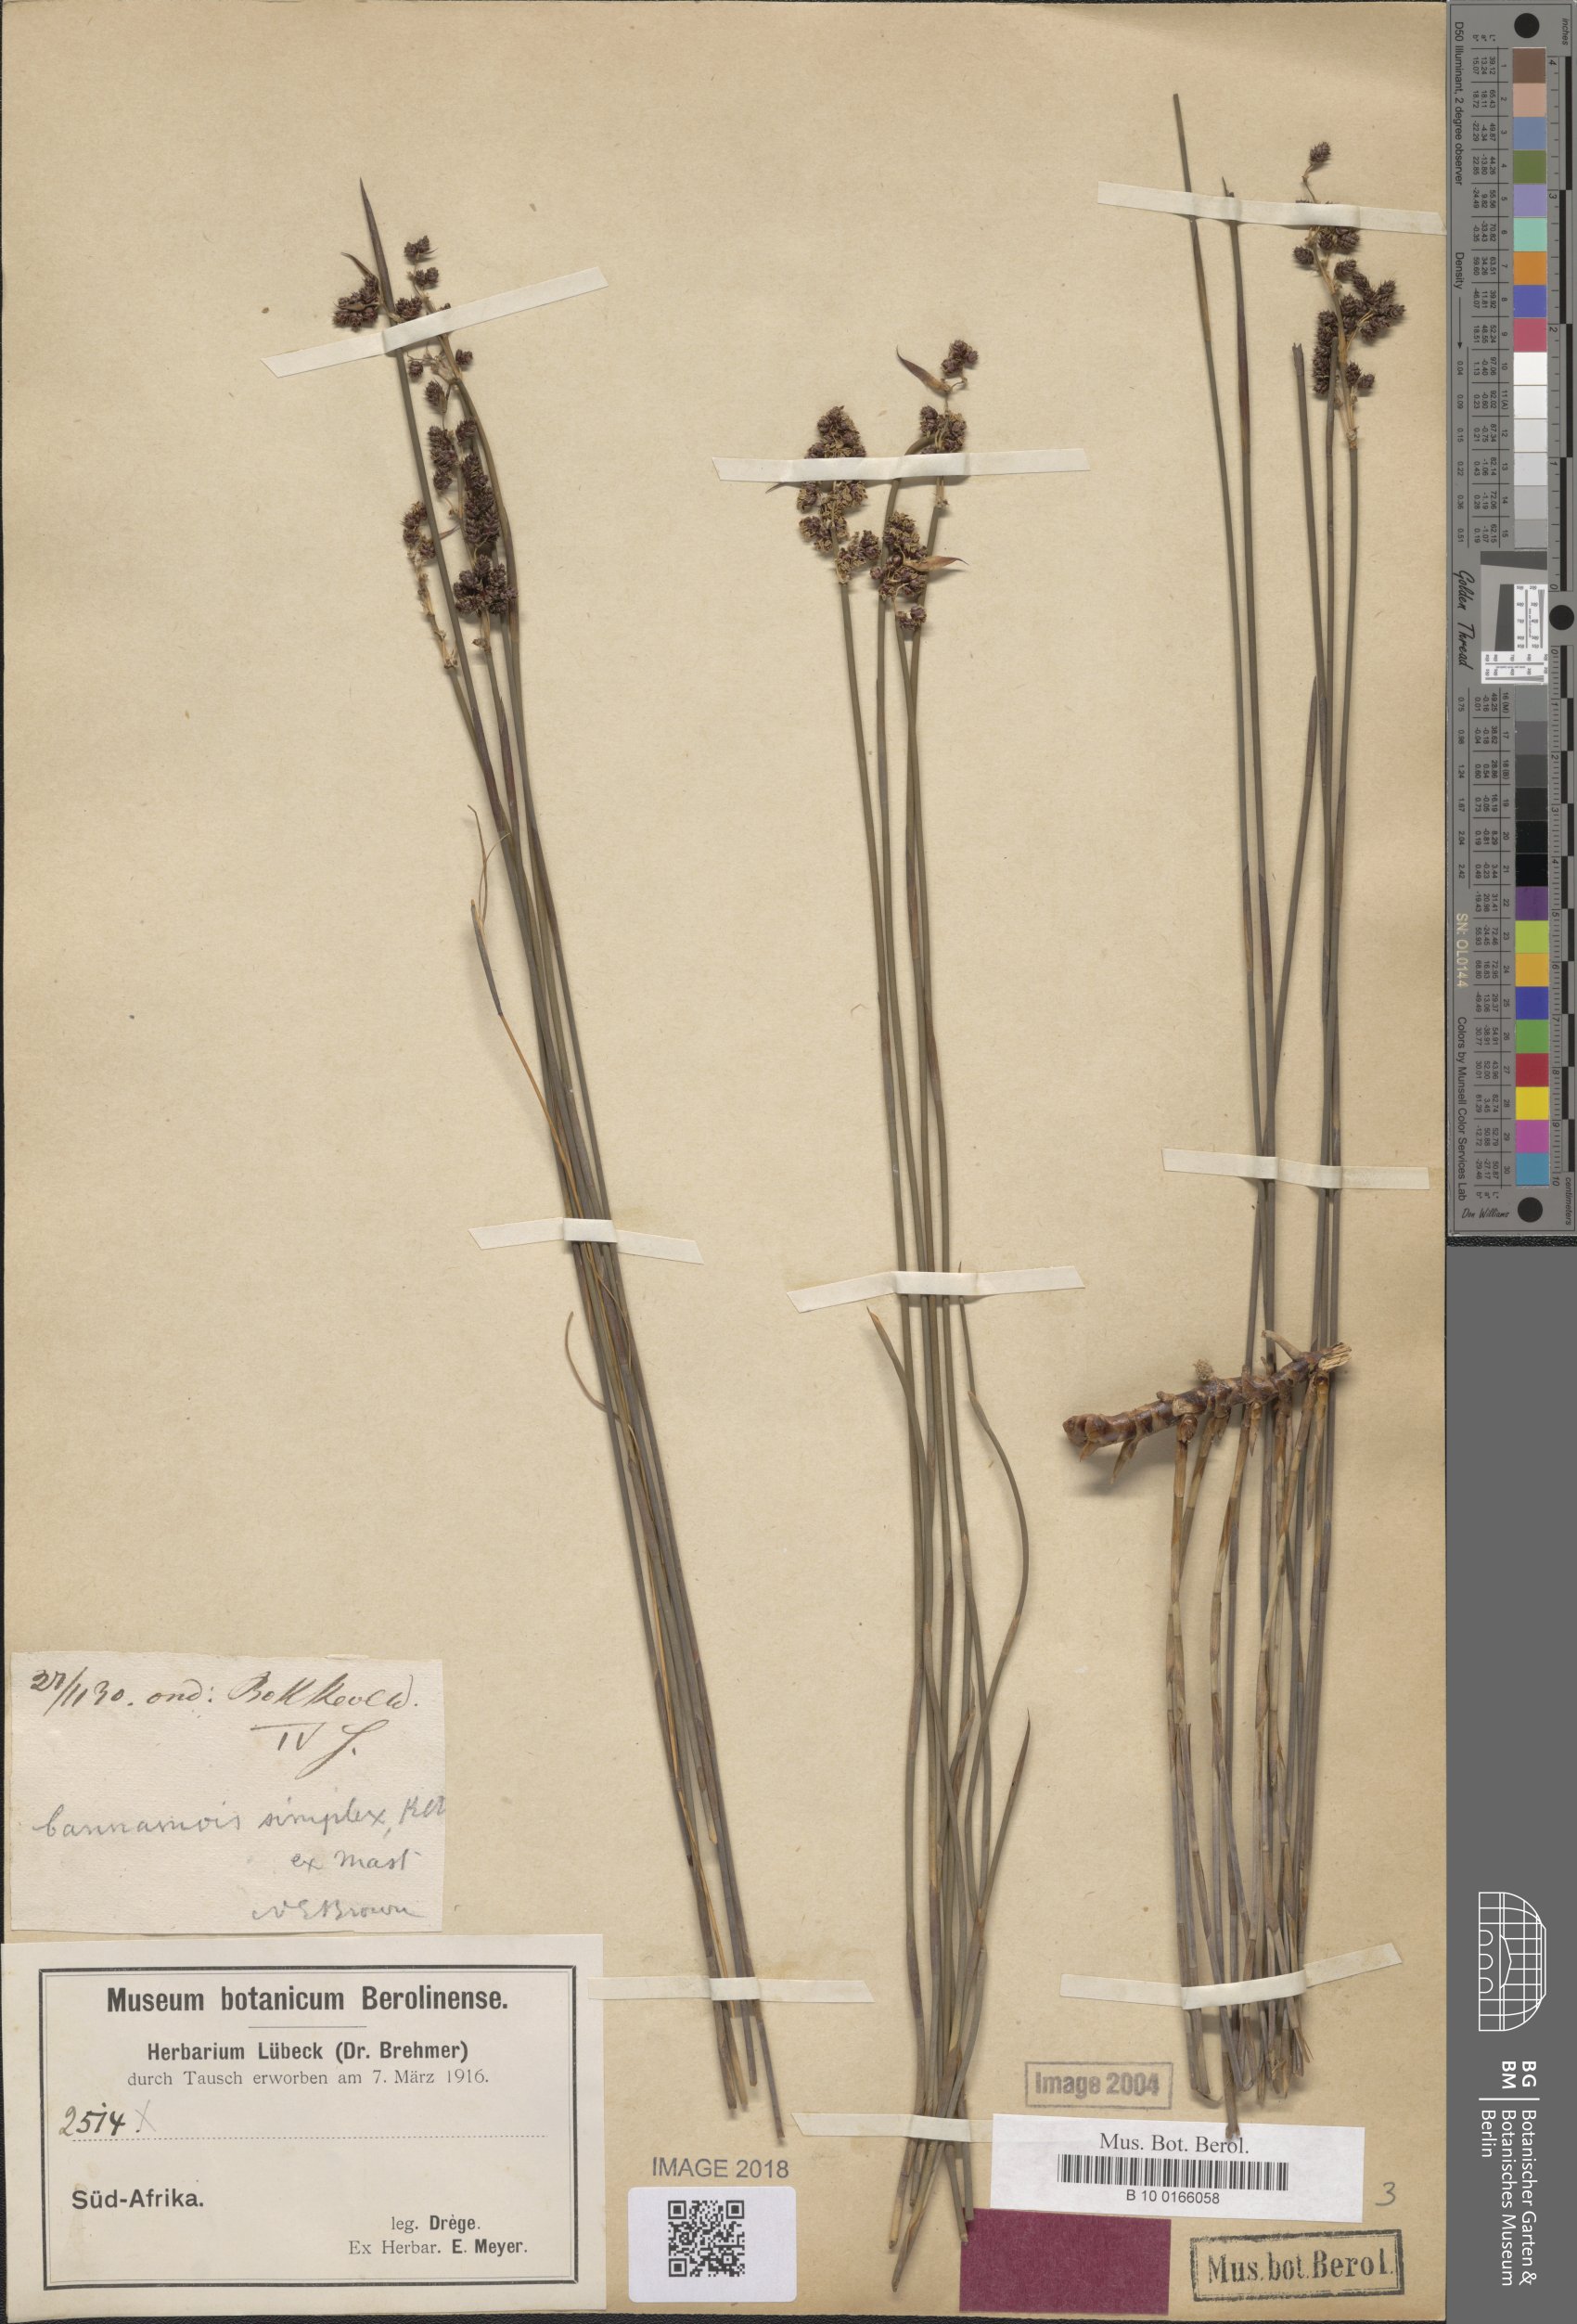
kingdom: Plantae
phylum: Tracheophyta
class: Liliopsida
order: Poales
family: Restionaceae
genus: Cannomois
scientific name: Cannomois parviflora
